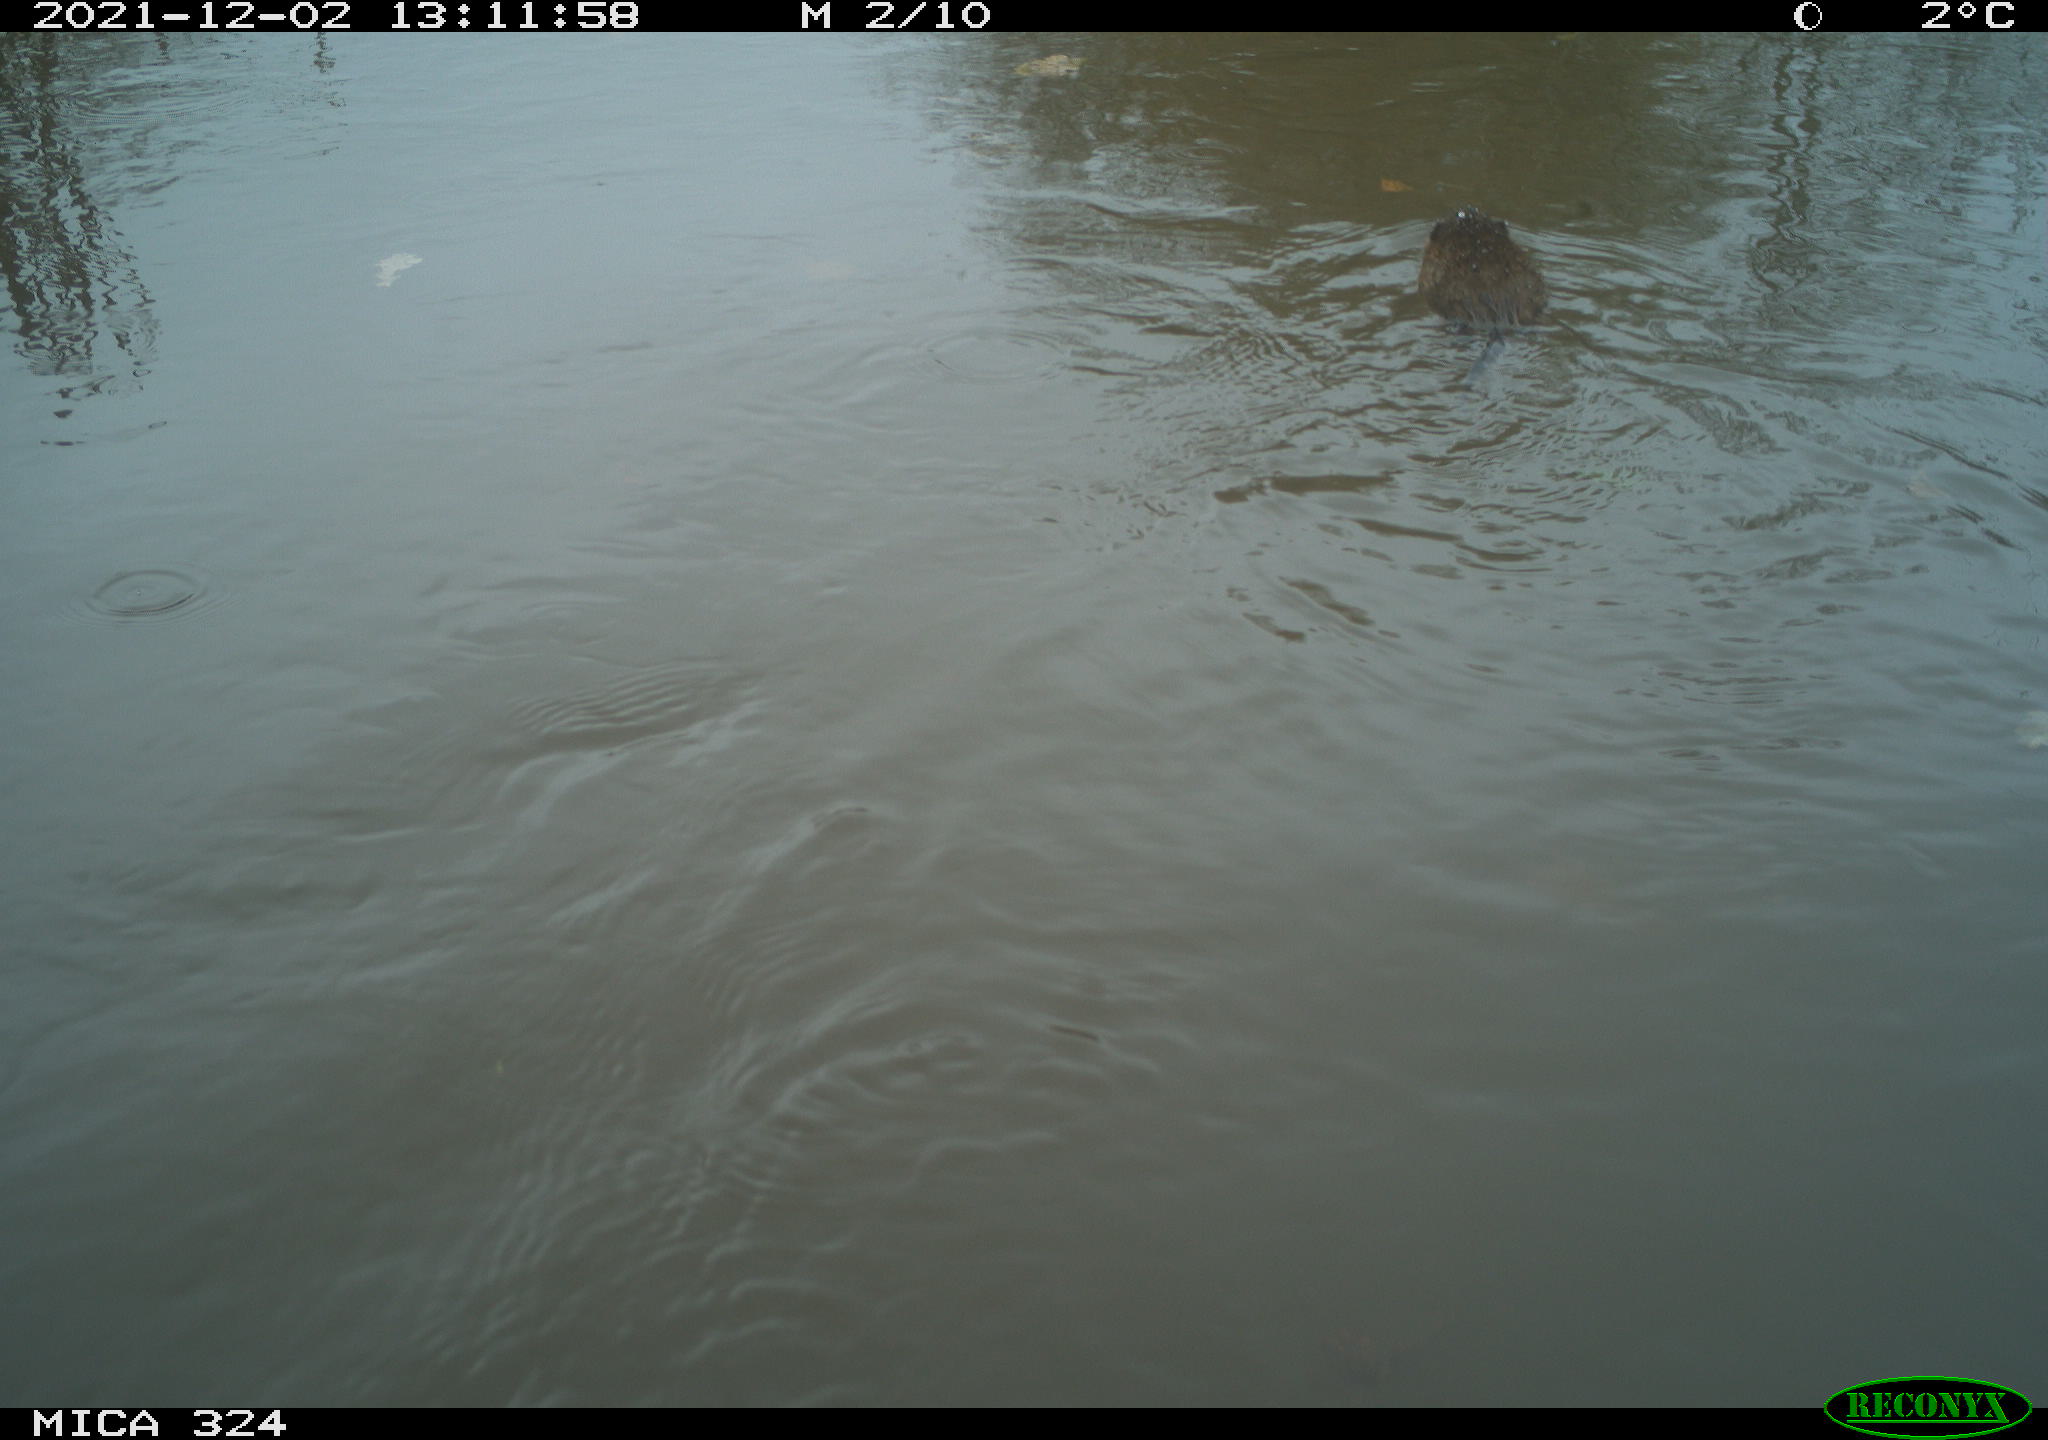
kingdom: Animalia
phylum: Chordata
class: Mammalia
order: Rodentia
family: Cricetidae
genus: Ondatra
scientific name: Ondatra zibethicus
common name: Muskrat
